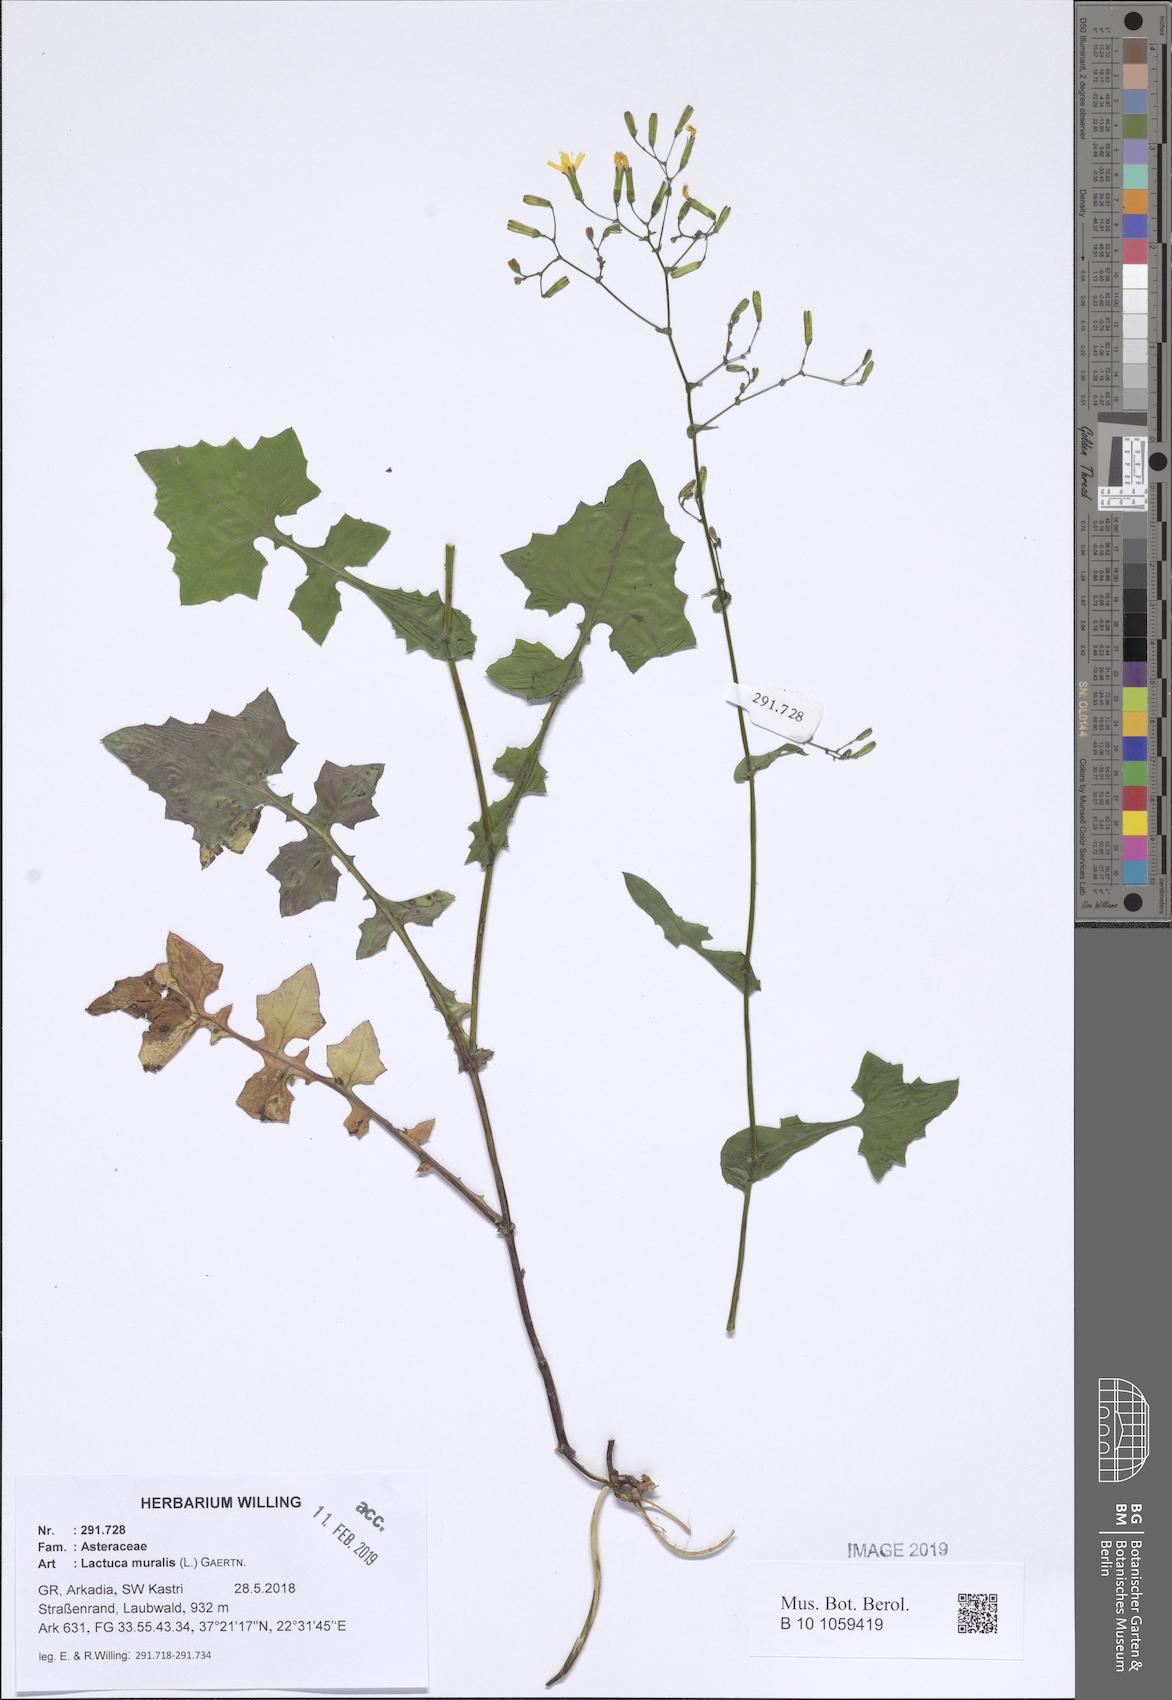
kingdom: Plantae
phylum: Tracheophyta
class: Magnoliopsida
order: Asterales
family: Asteraceae
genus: Mycelis
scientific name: Mycelis muralis
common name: Wall lettuce
